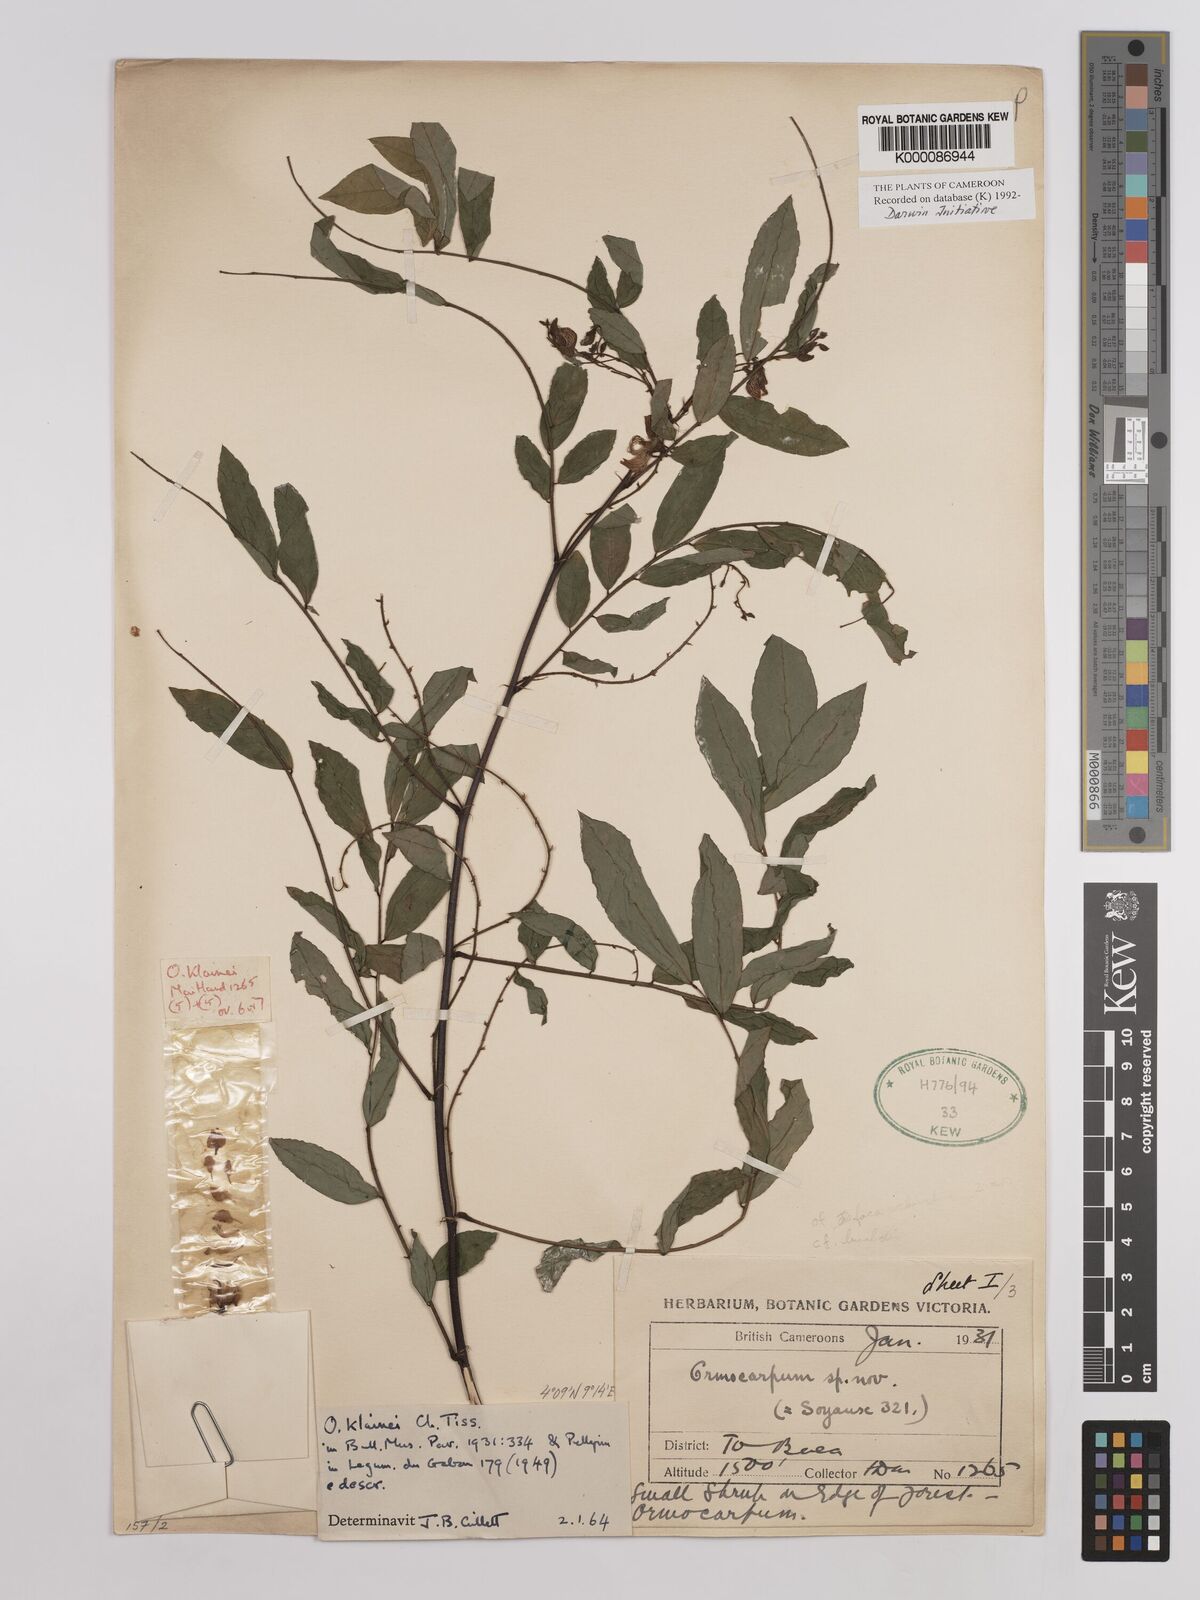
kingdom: Plantae
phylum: Tracheophyta
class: Magnoliopsida
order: Fabales
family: Fabaceae
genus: Ormocarpum
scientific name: Ormocarpum klainei
